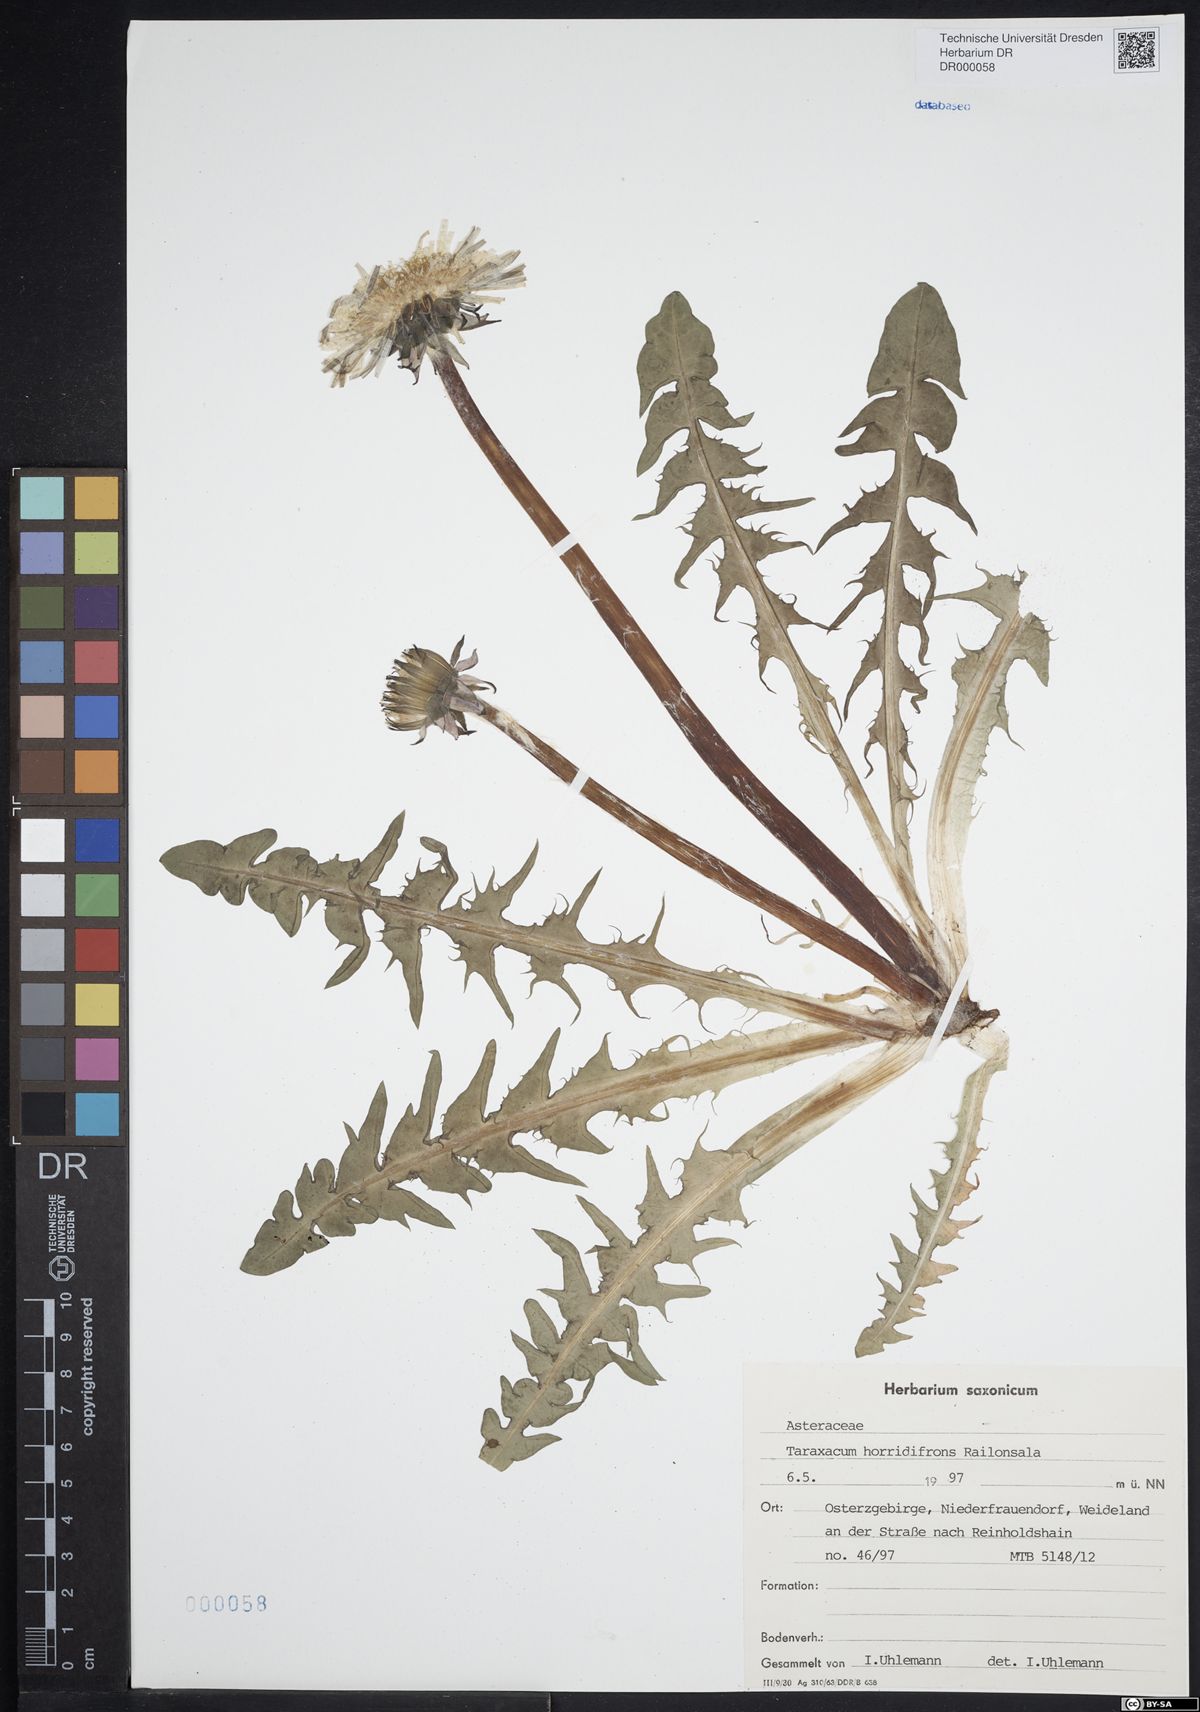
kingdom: Plantae
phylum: Tracheophyta
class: Magnoliopsida
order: Asterales
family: Asteraceae
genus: Taraxacum
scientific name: Taraxacum horridifrons
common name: Prickly-leaved dandelion
